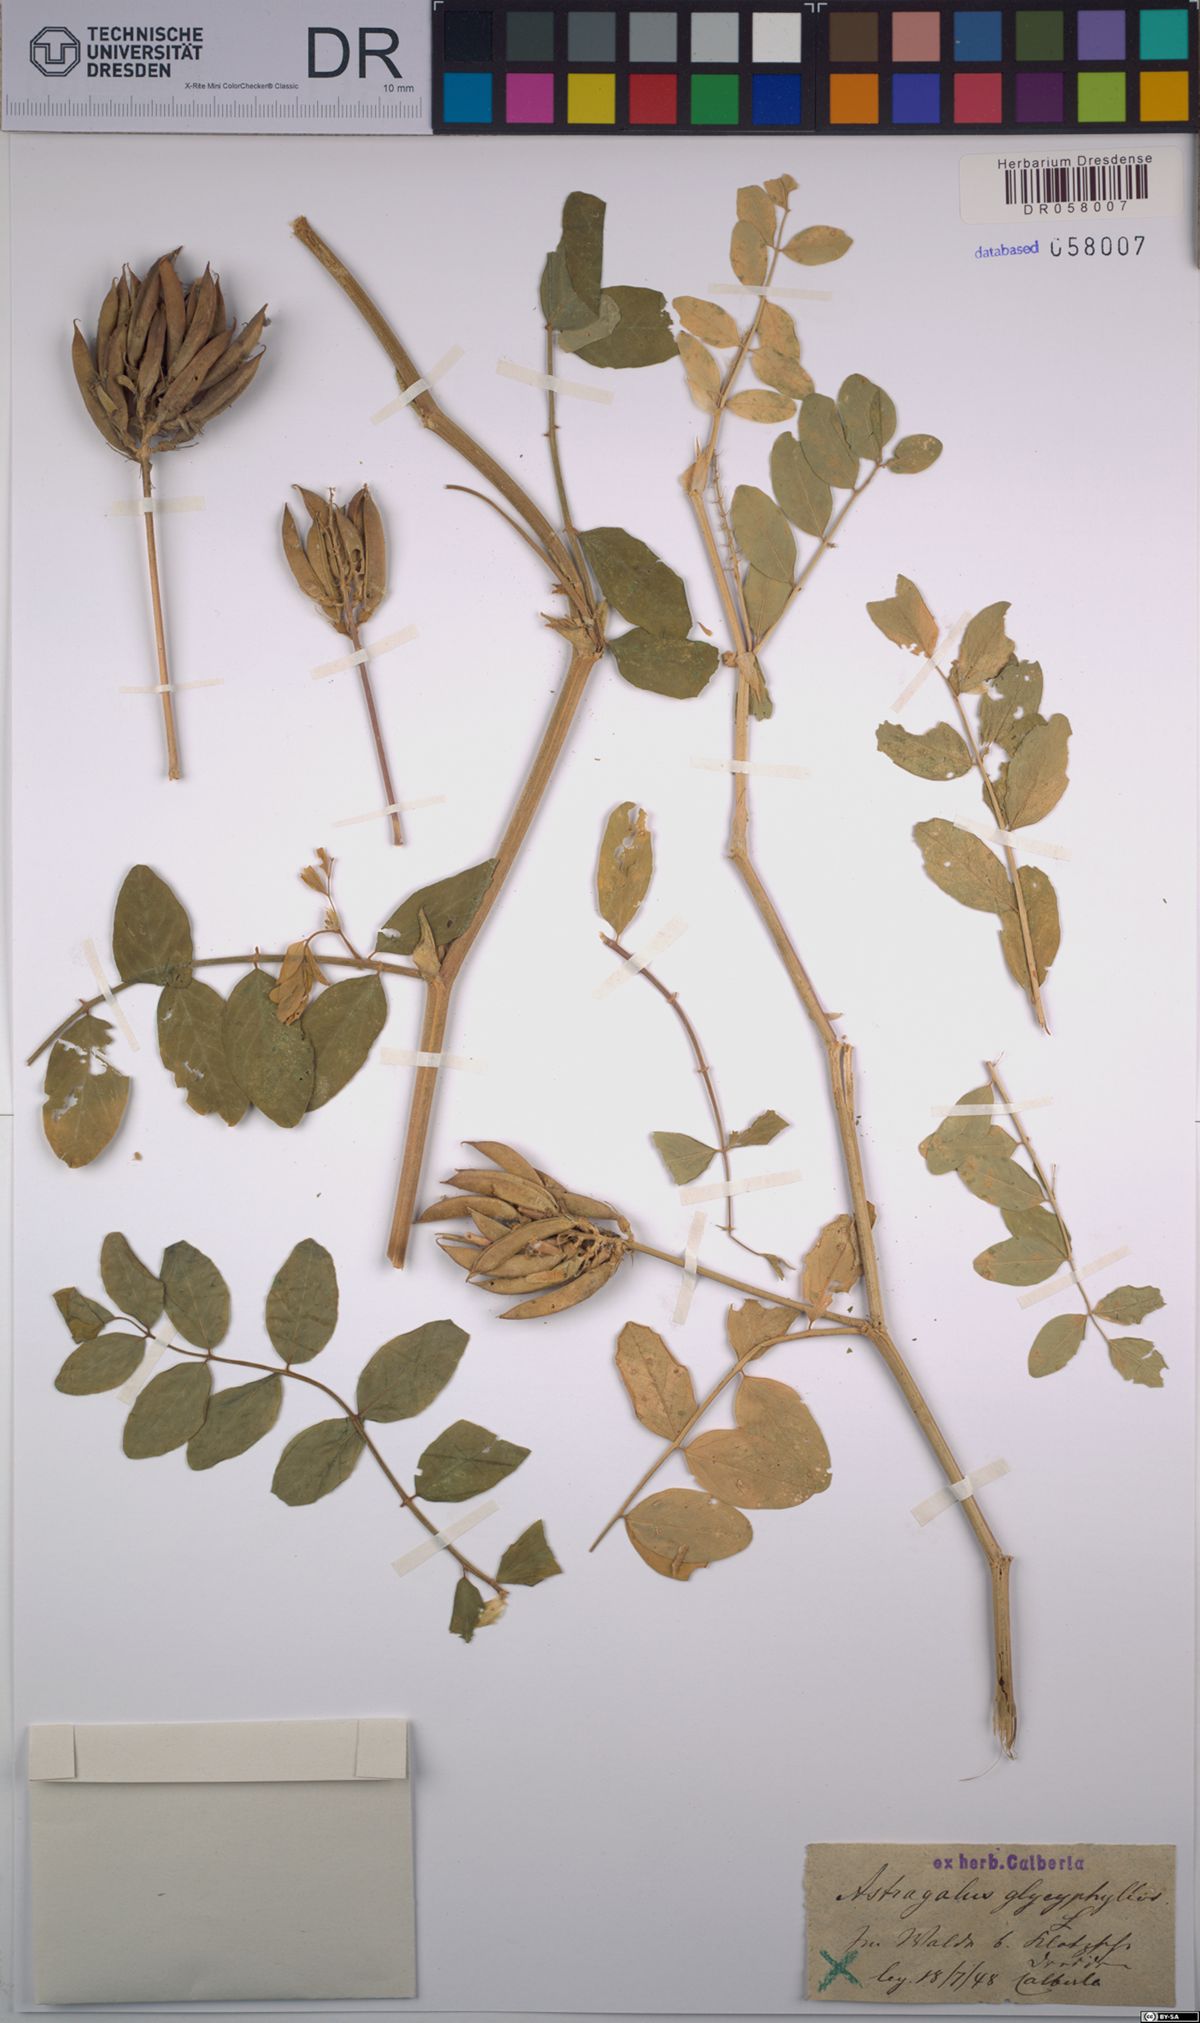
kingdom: Plantae
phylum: Tracheophyta
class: Magnoliopsida
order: Fabales
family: Fabaceae
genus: Astragalus
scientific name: Astragalus glycyphyllos
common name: Wild liquorice
